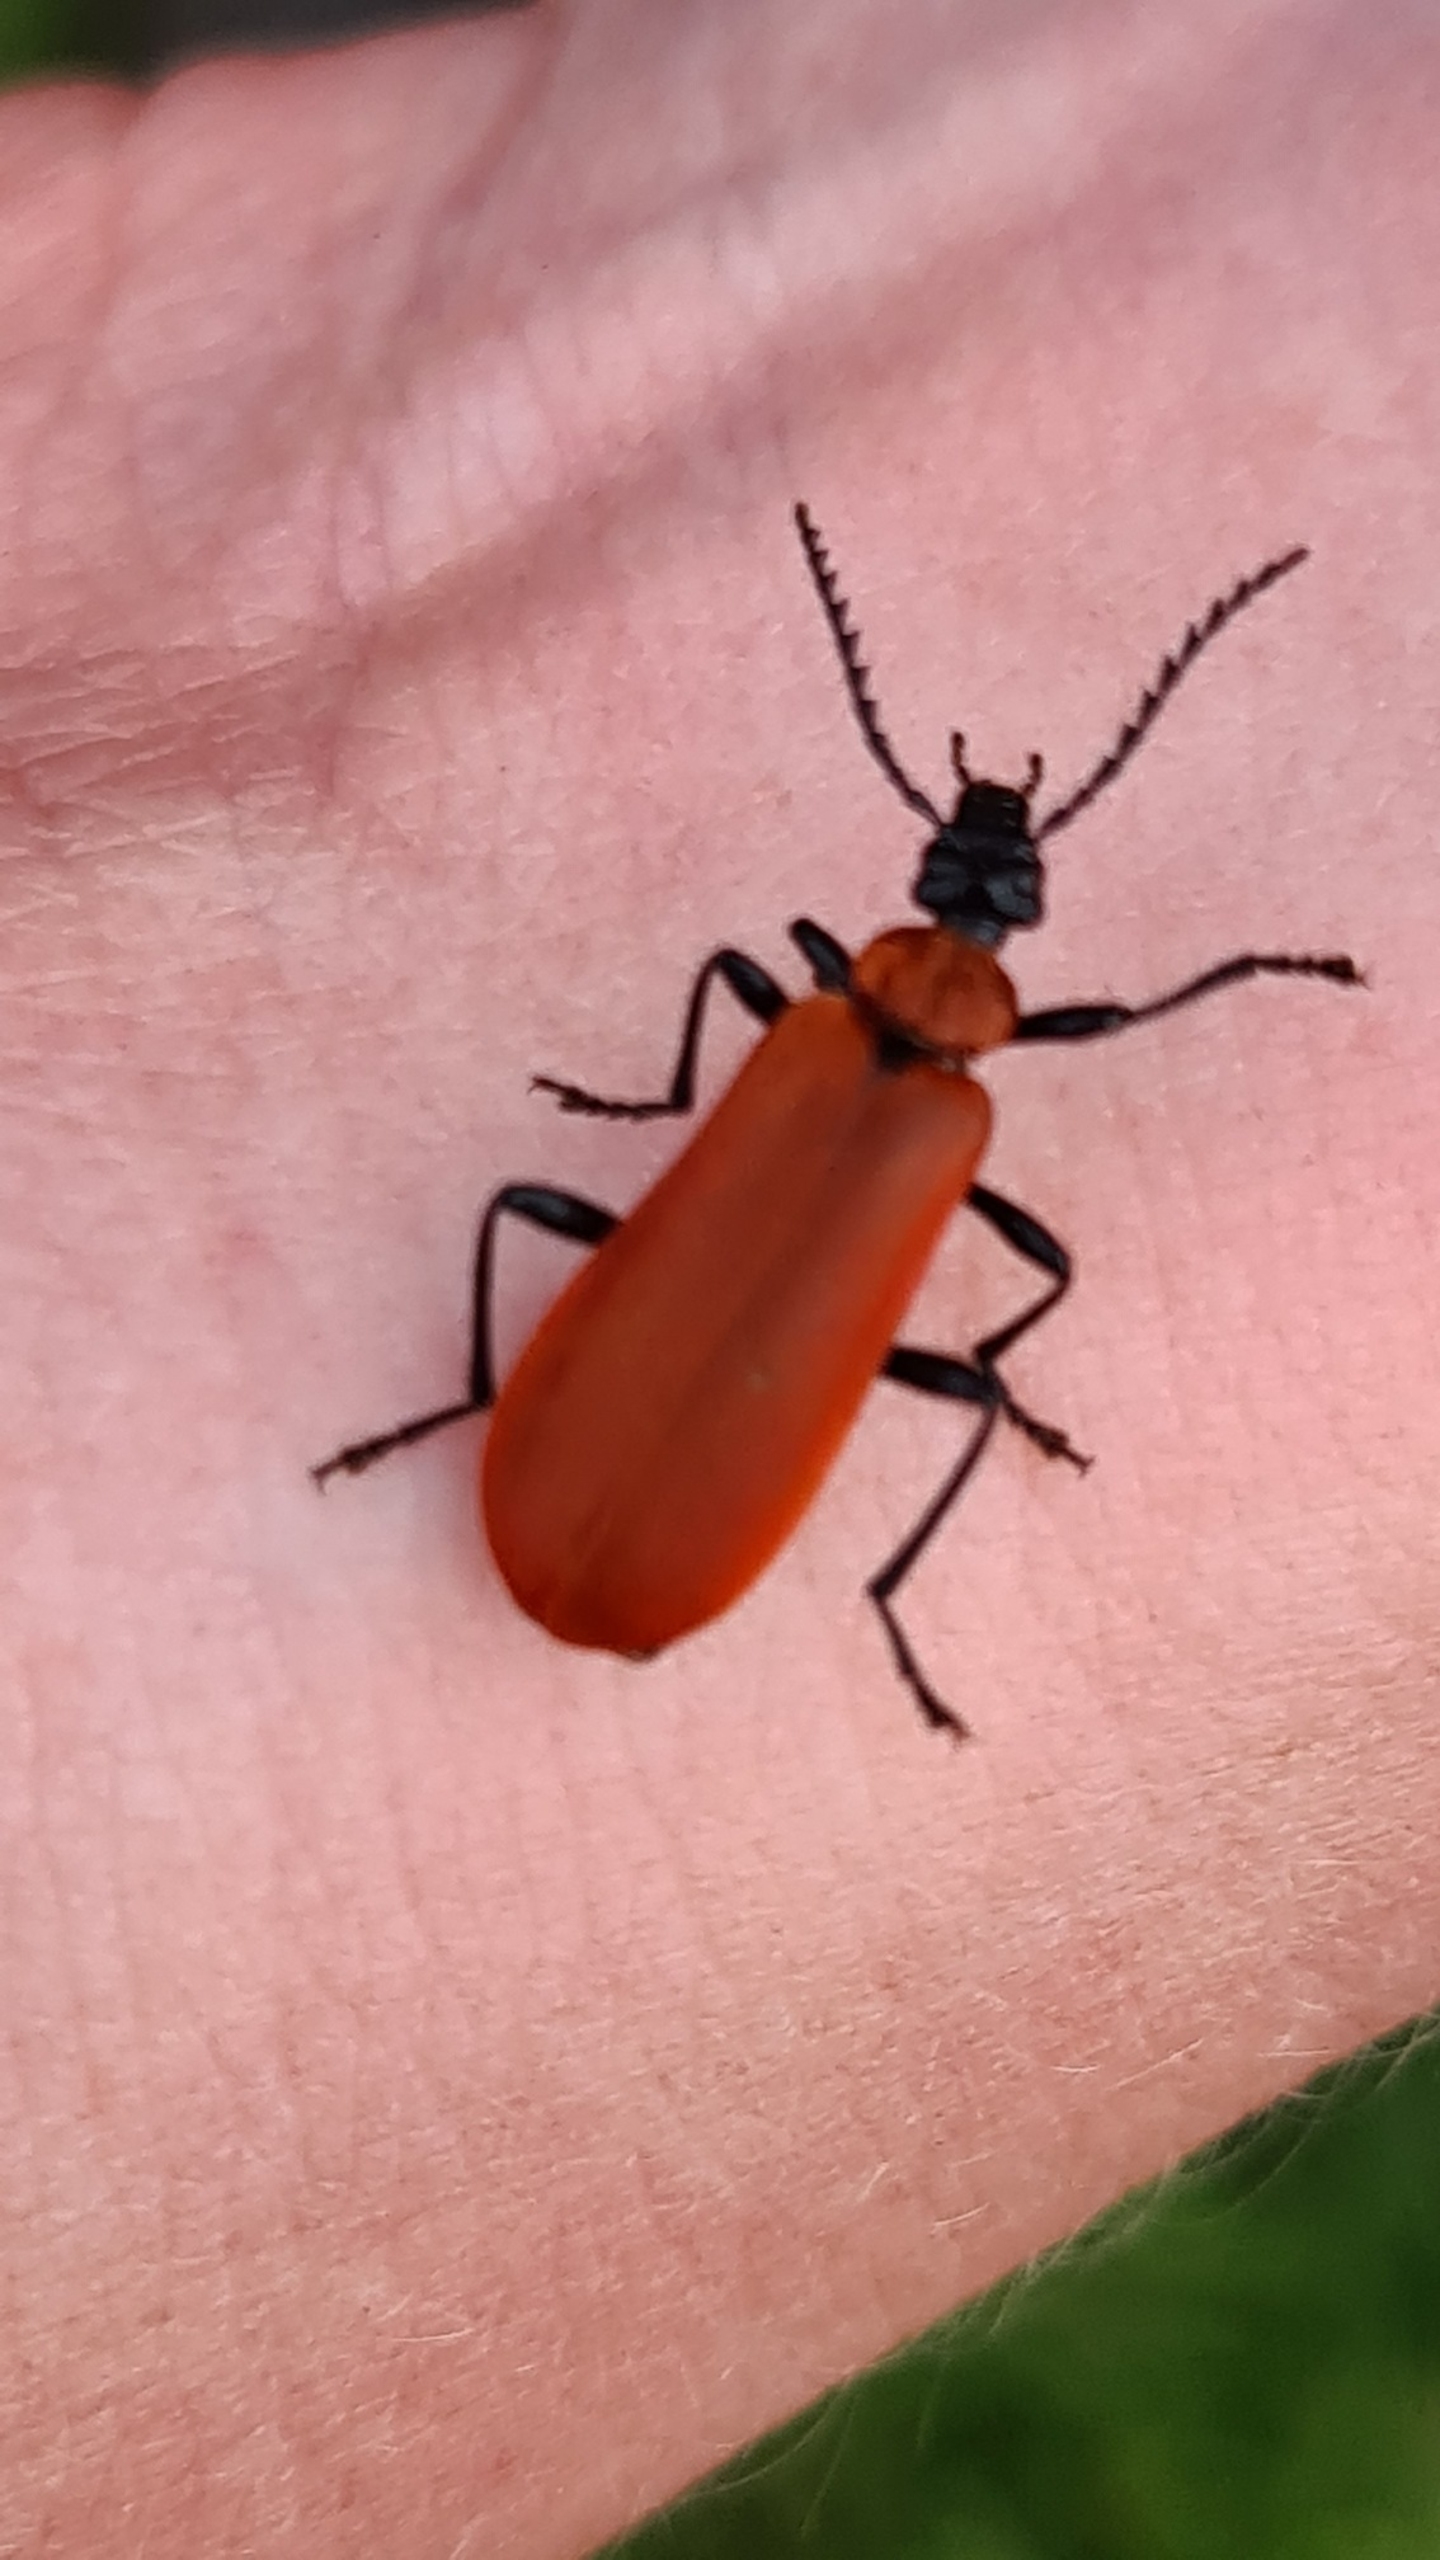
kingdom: Animalia
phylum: Arthropoda
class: Insecta
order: Coleoptera
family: Pyrochroidae
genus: Pyrochroa
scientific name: Pyrochroa coccinea
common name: Sorthovedet kardinalbille
